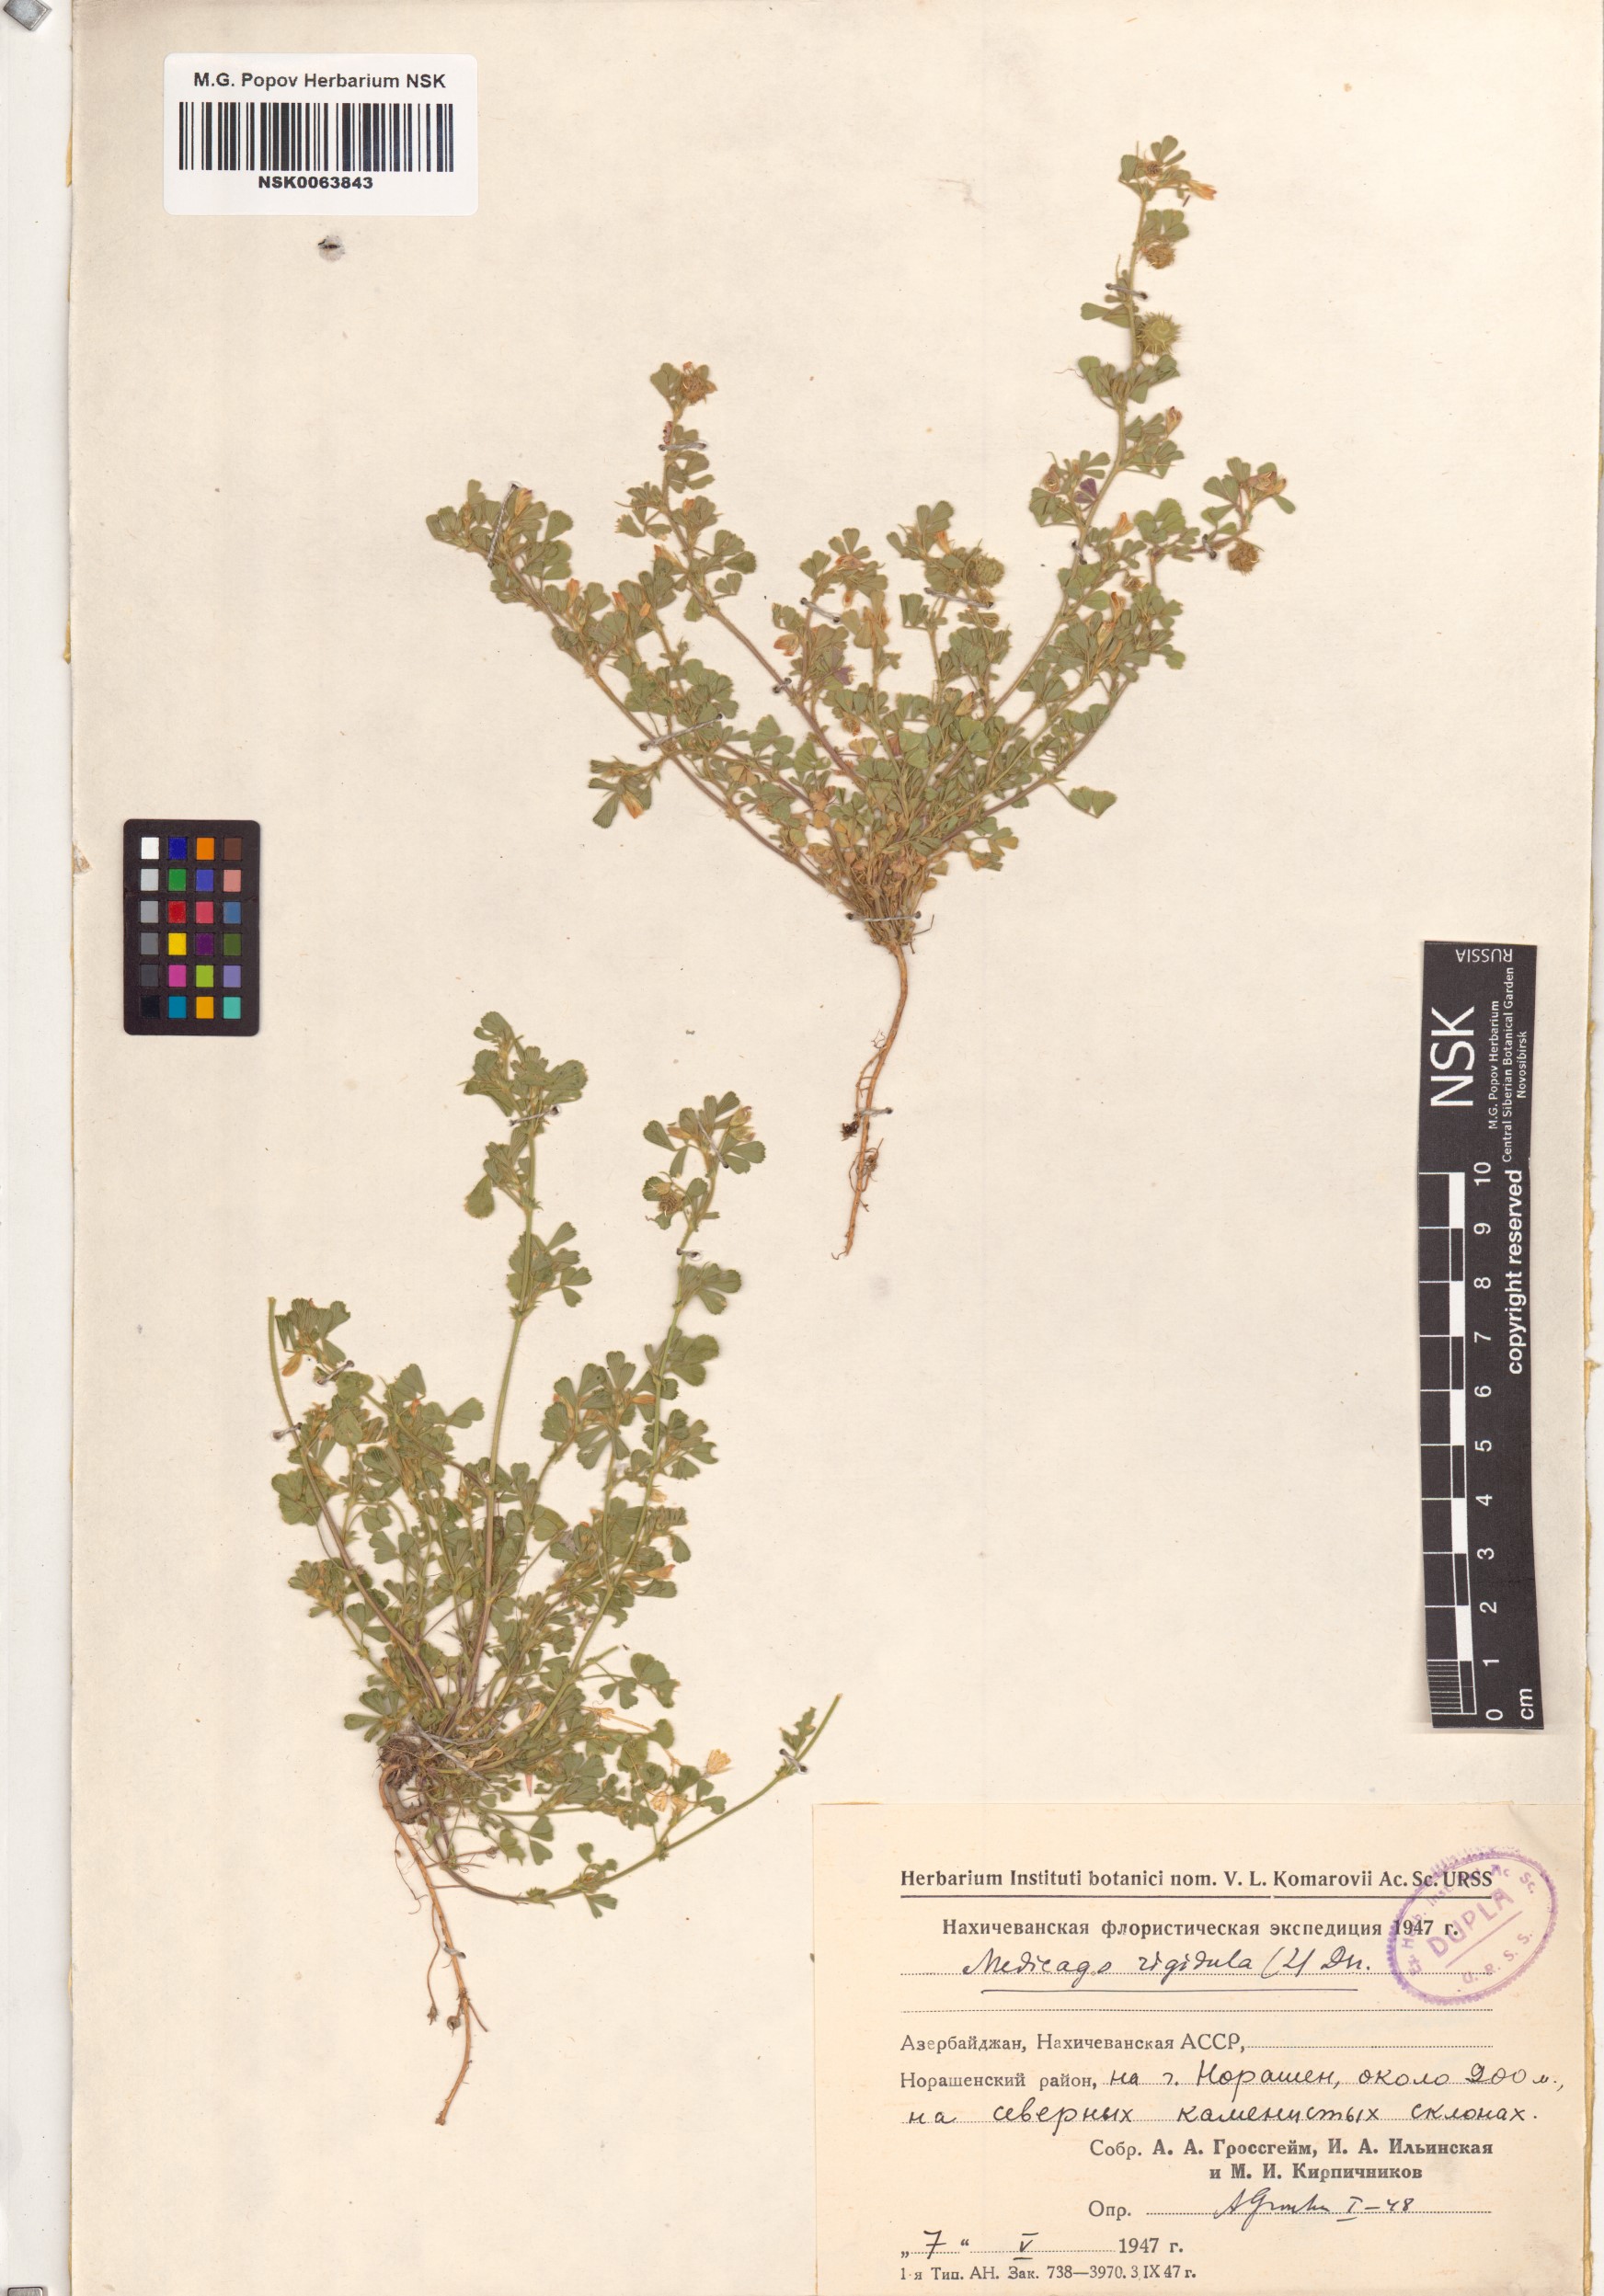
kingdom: Plantae
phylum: Tracheophyta
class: Magnoliopsida
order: Fabales
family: Fabaceae
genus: Medicago
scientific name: Medicago rigidula
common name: Tifton medic
